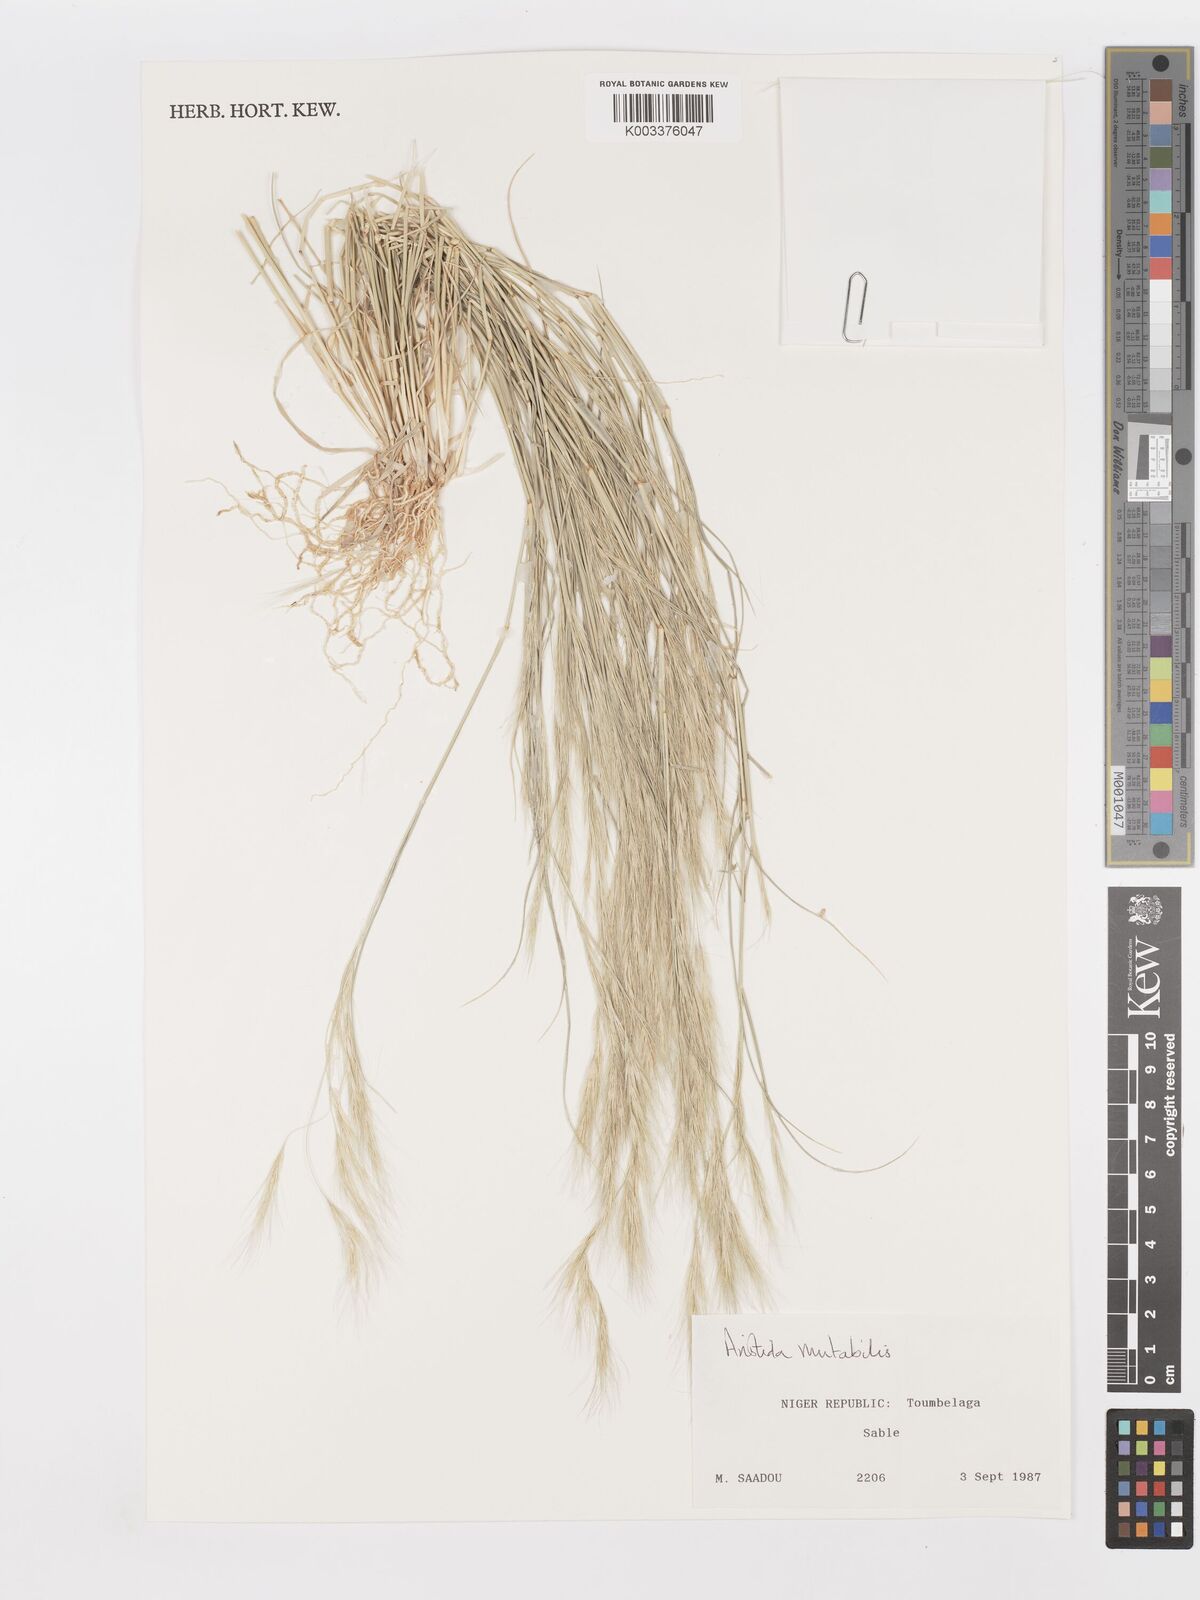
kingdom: Plantae
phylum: Tracheophyta
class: Liliopsida
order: Poales
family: Poaceae
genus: Aristida
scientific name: Aristida mutabilis
